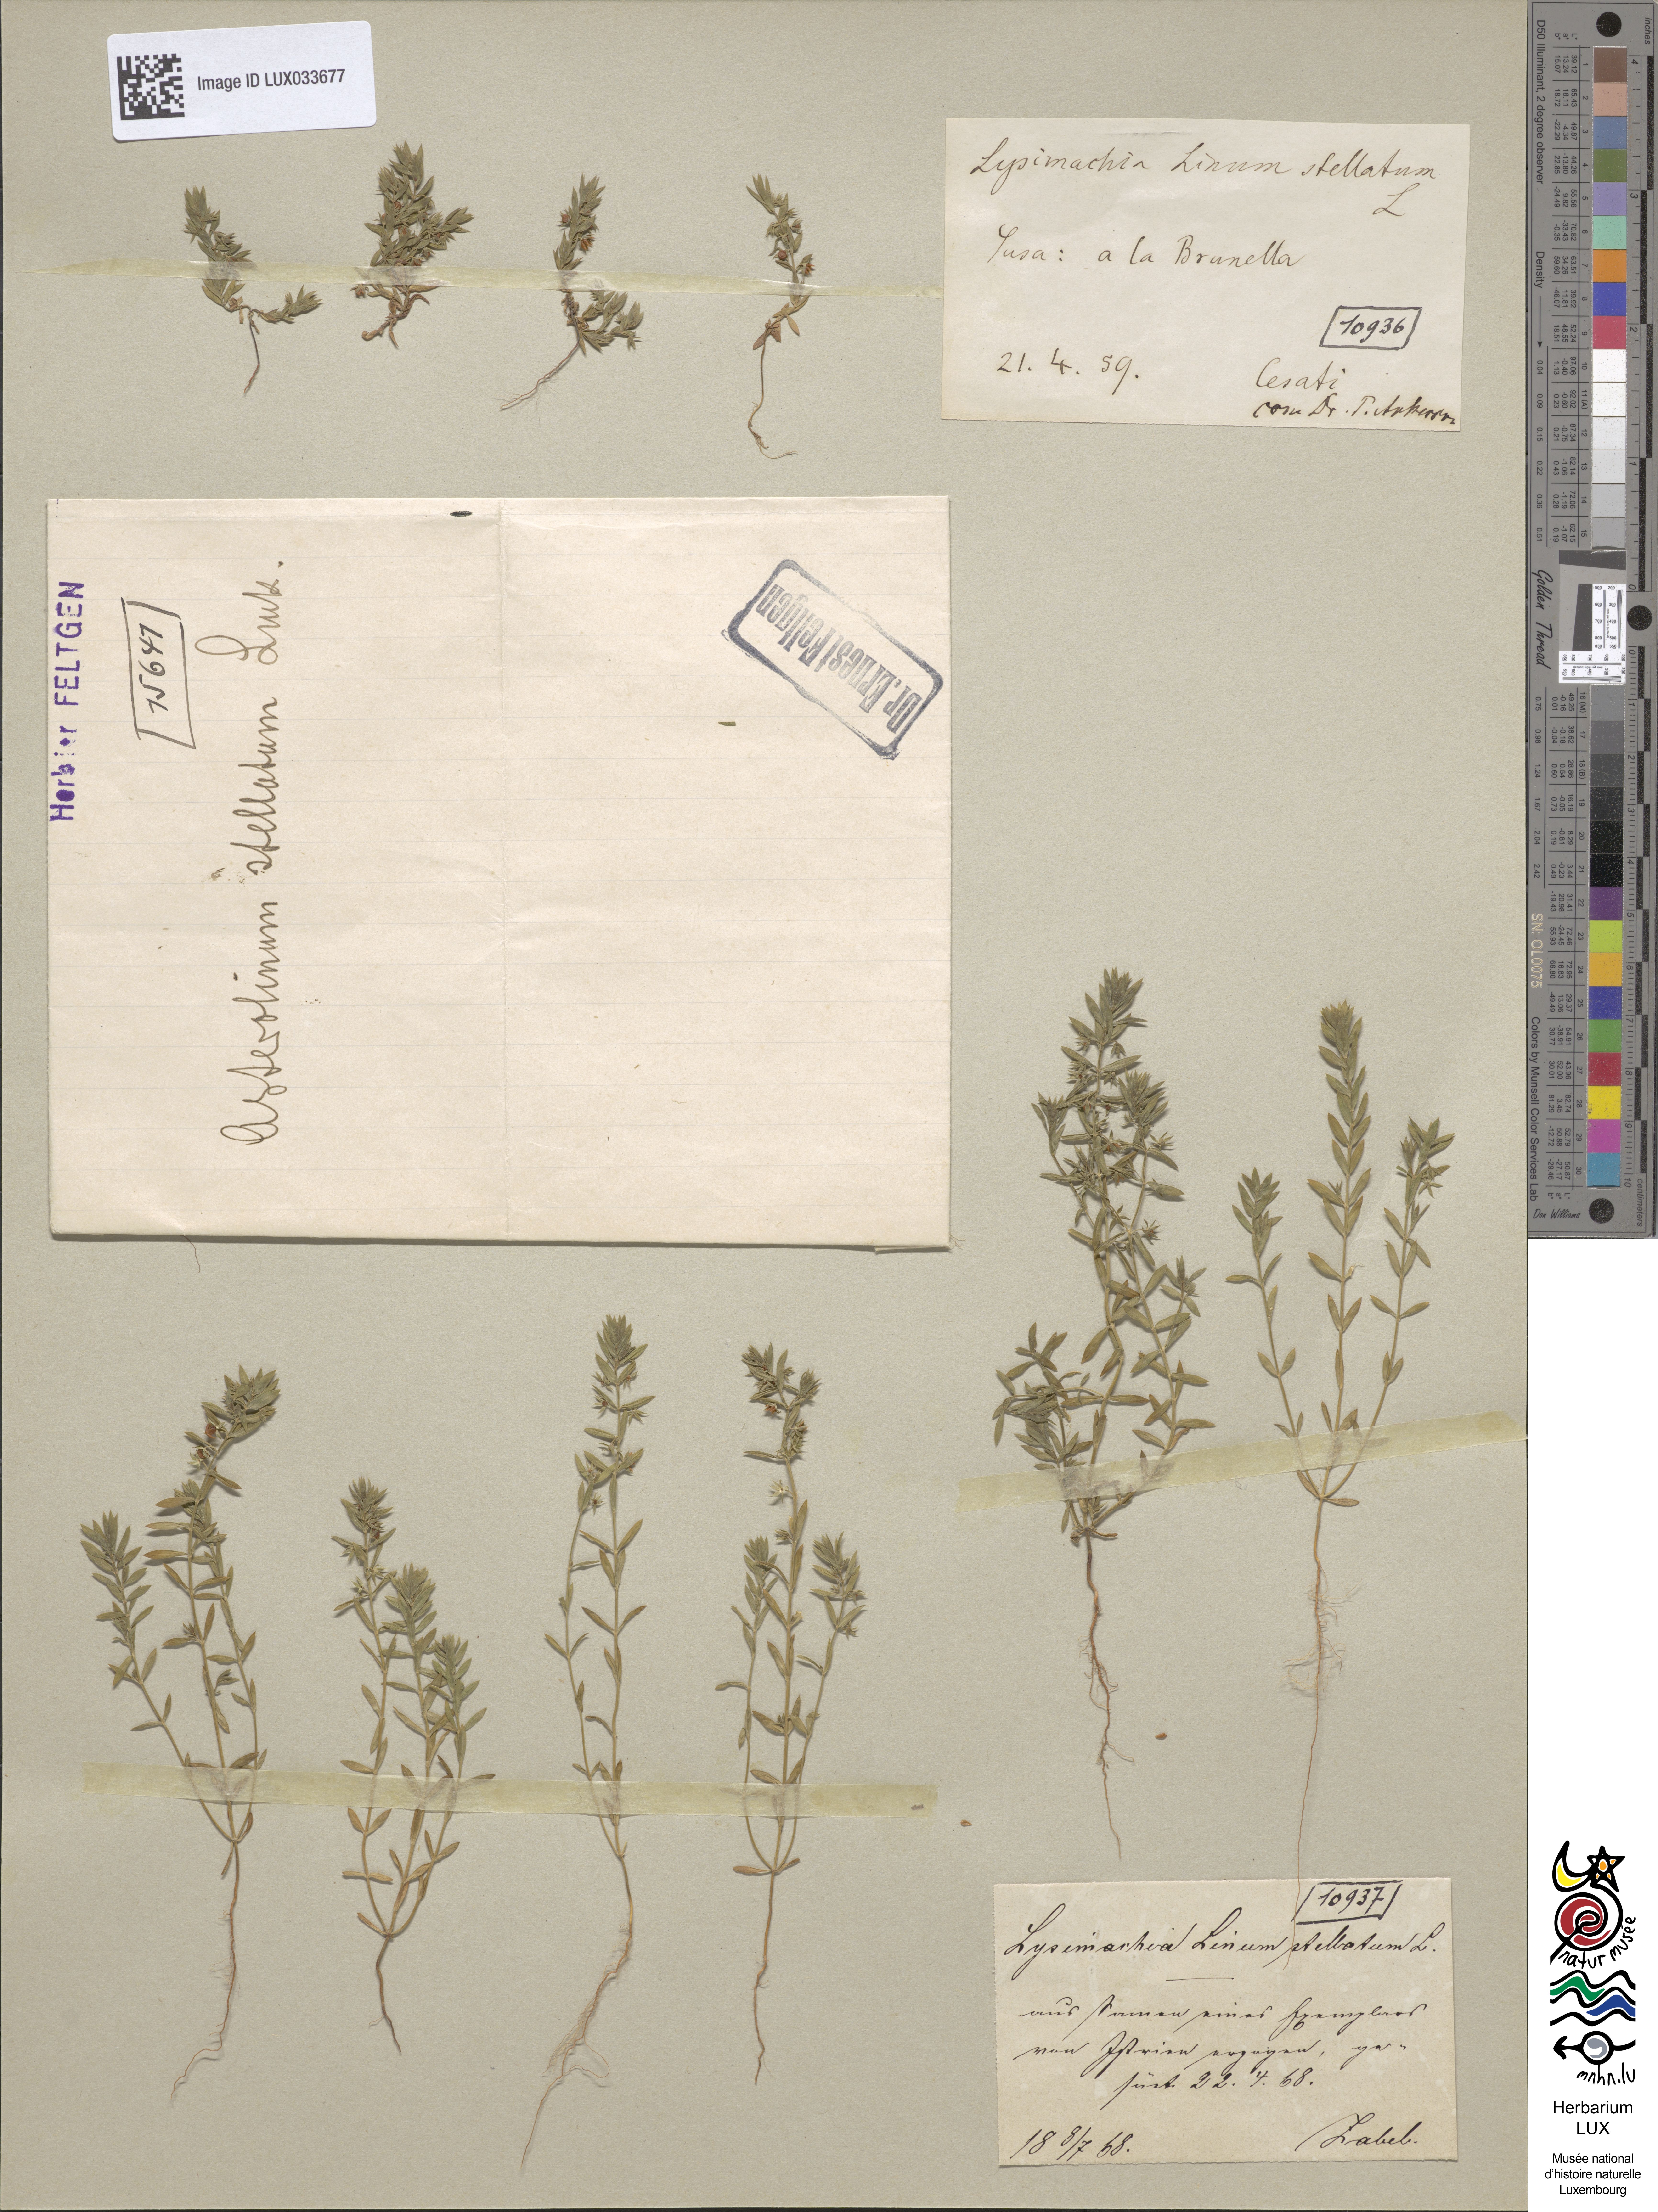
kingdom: Plantae
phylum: Tracheophyta
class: Magnoliopsida
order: Ericales
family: Primulaceae
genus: Lysimachia
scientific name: Lysimachia linum-stellatum
